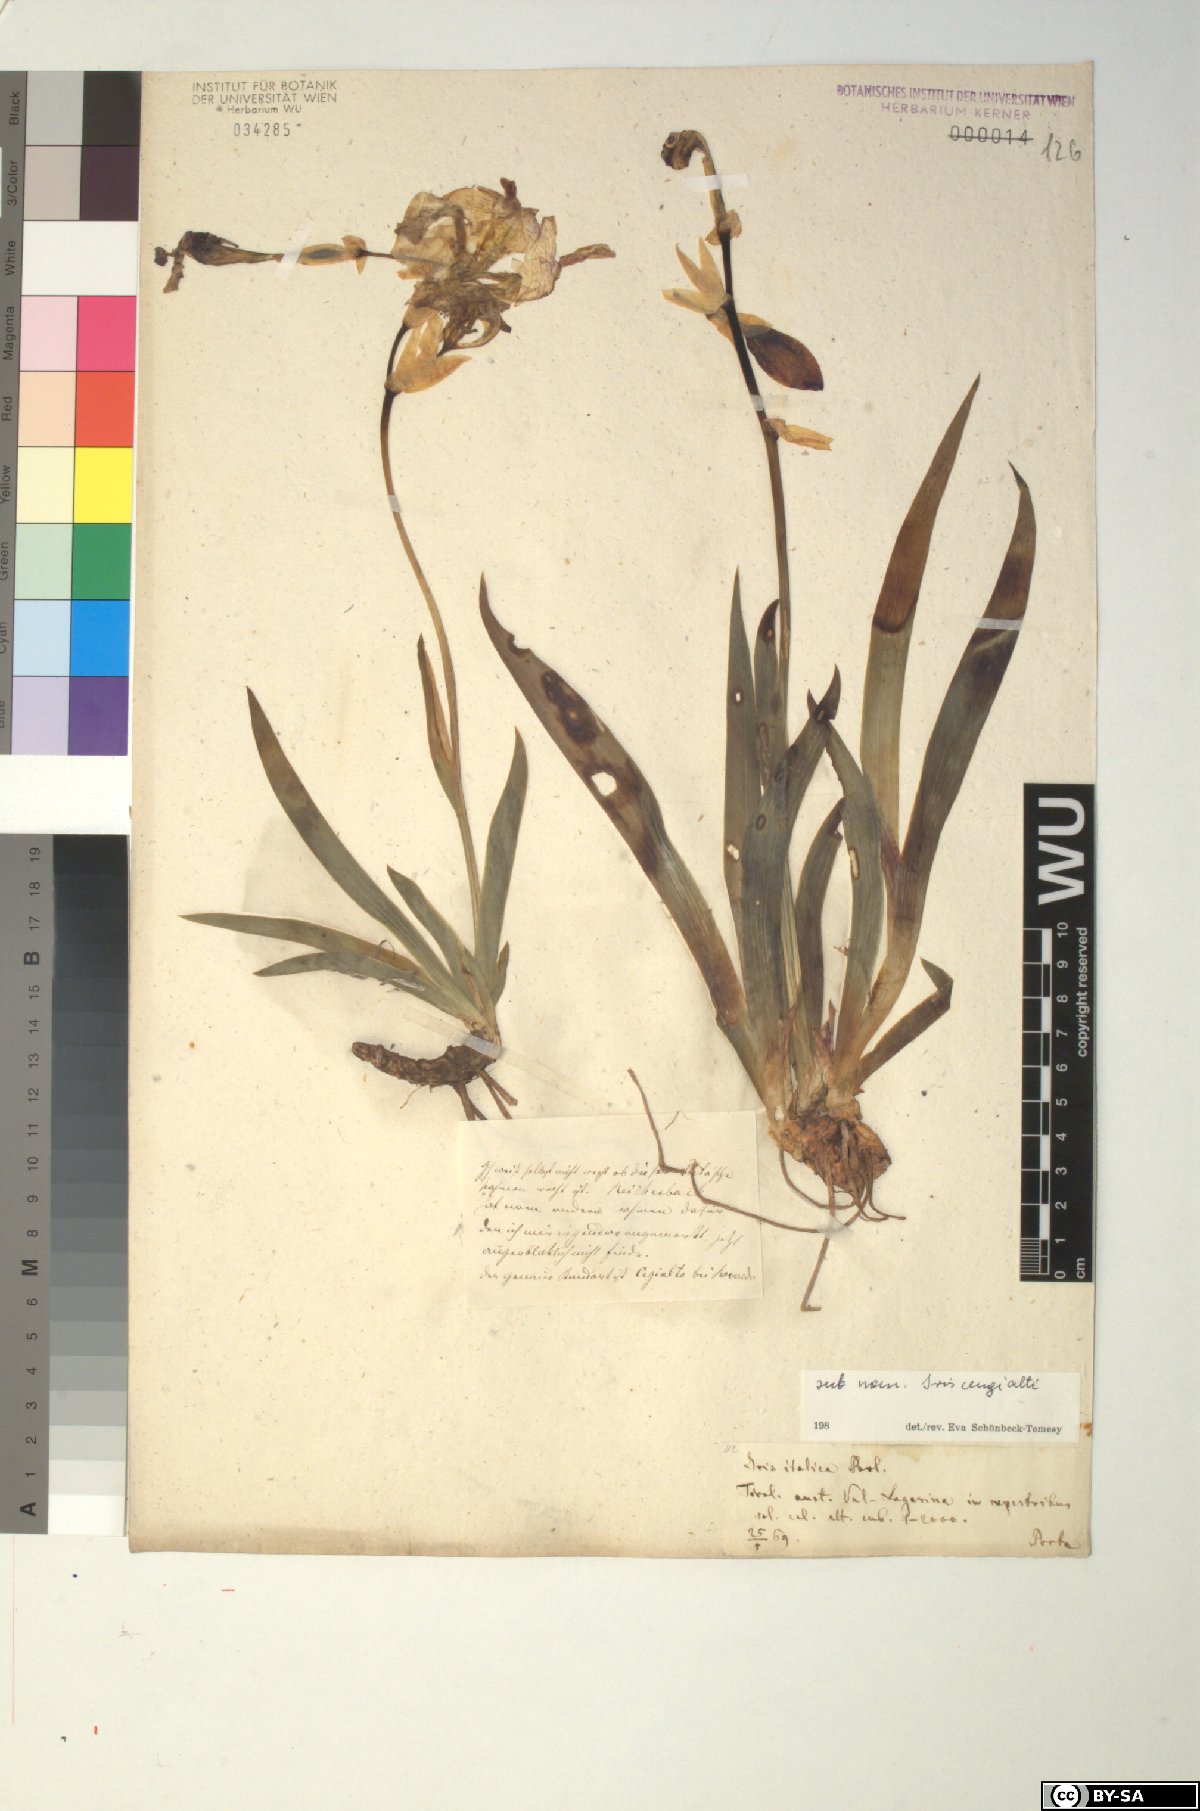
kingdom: Plantae
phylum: Tracheophyta
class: Liliopsida
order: Asparagales
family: Iridaceae
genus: Iris
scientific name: Iris pallida
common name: Sweet iris
